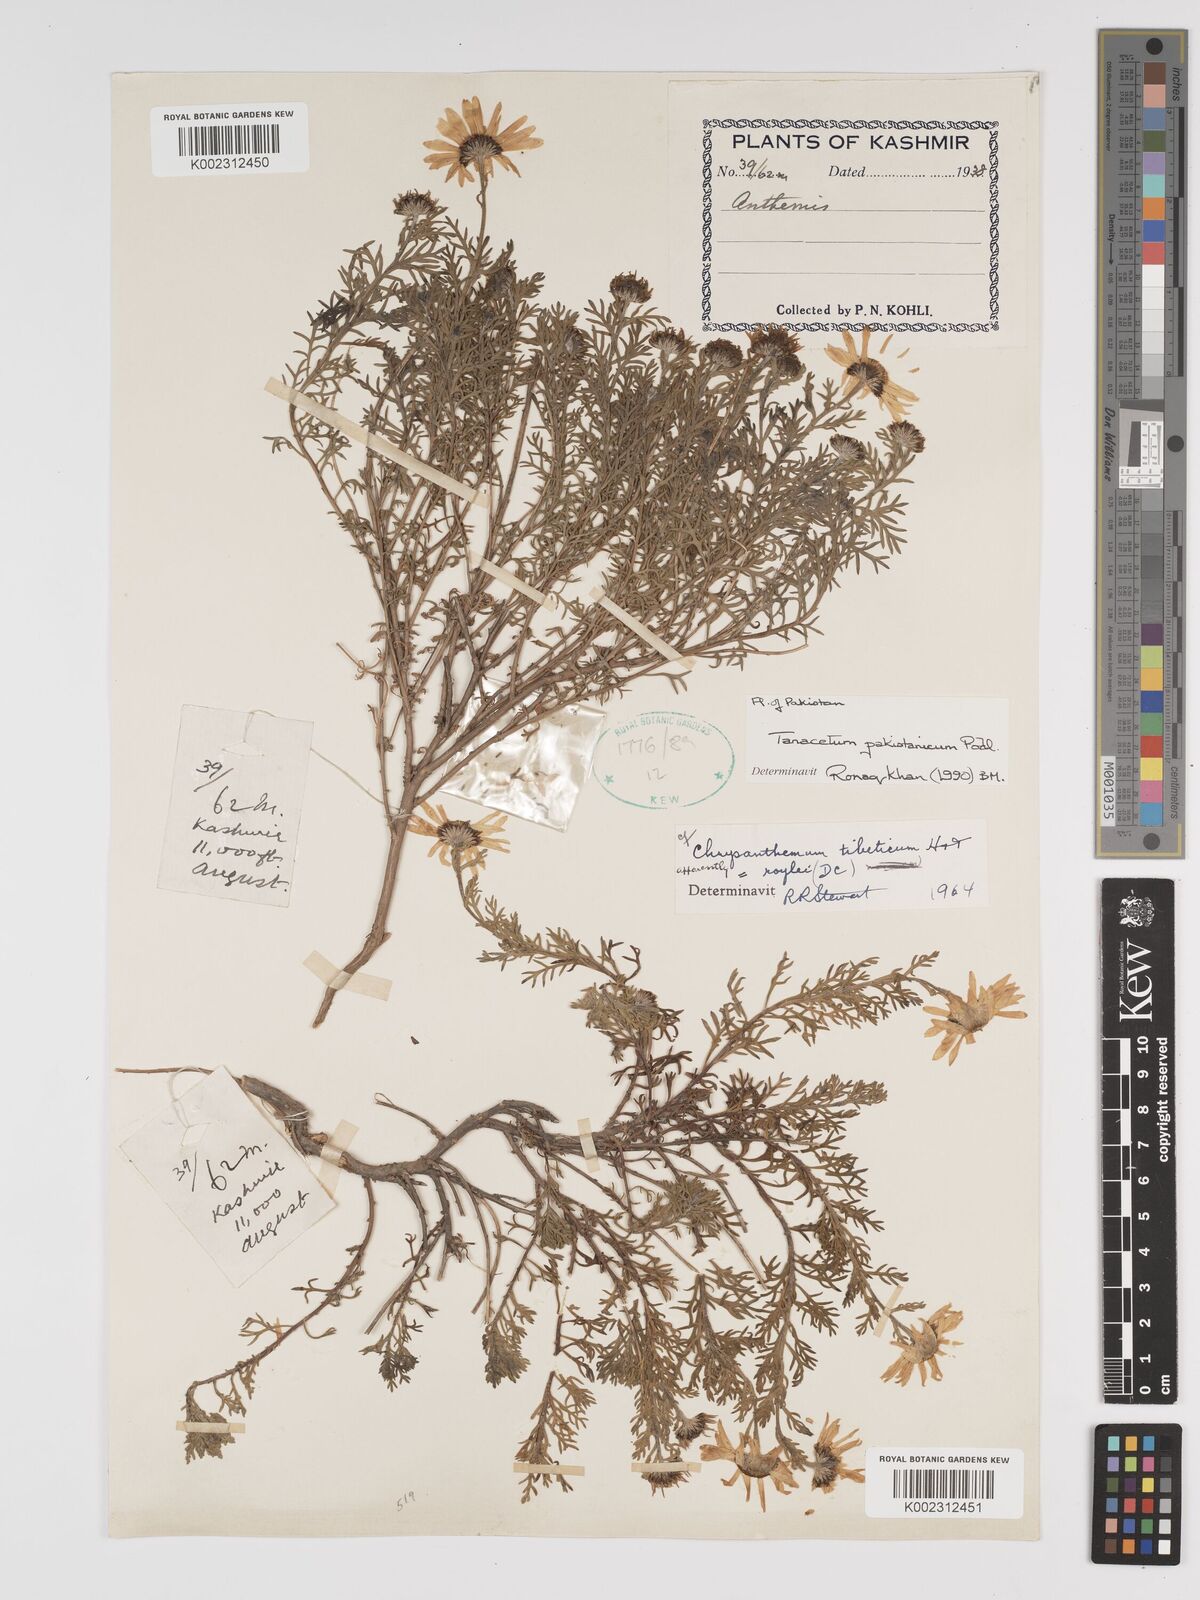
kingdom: Plantae
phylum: Tracheophyta
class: Magnoliopsida
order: Asterales
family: Asteraceae
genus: Tanacetum
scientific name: Tanacetum pakistanicum
